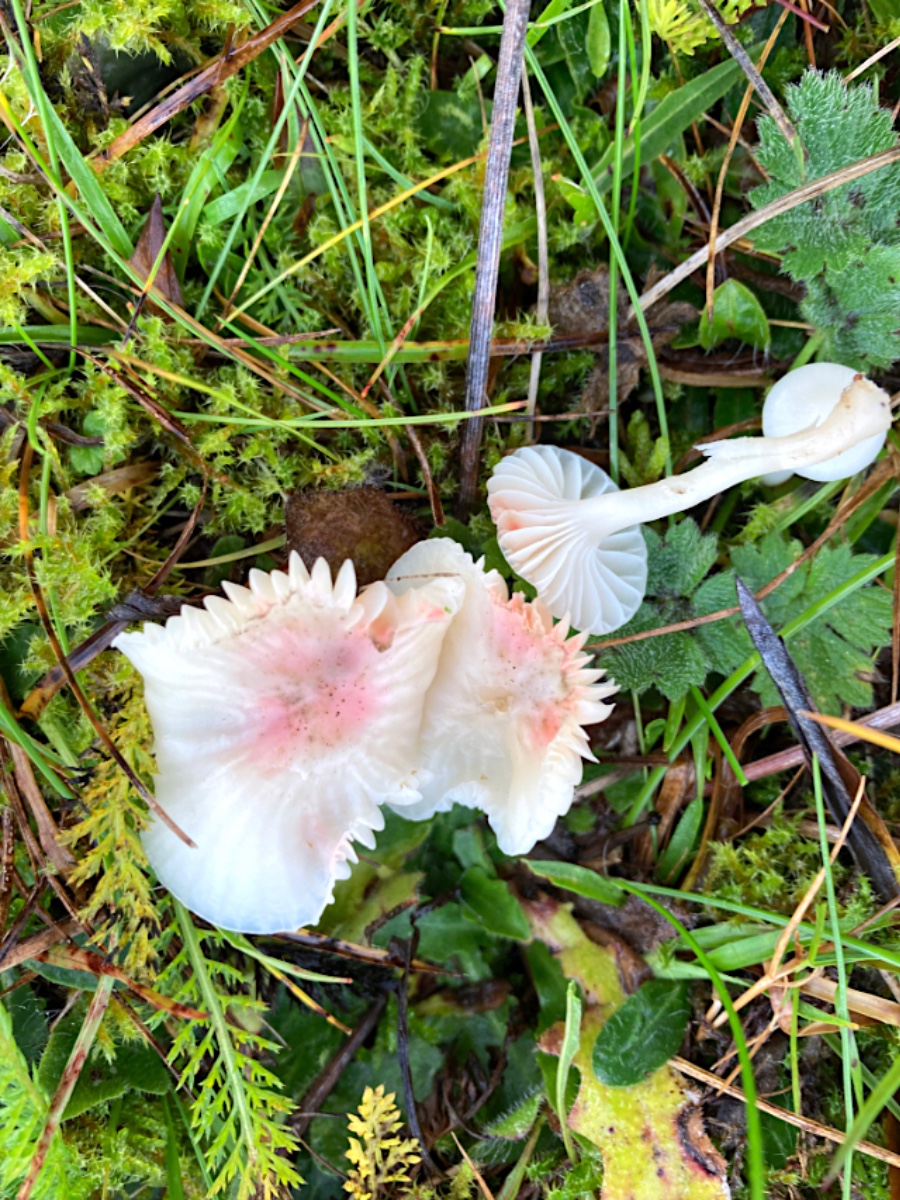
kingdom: Fungi
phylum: Basidiomycota
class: Agaricomycetes
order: Agaricales
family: Hygrophoraceae
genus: Cuphophyllus
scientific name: Cuphophyllus virgineus
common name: snehvid vokshat
